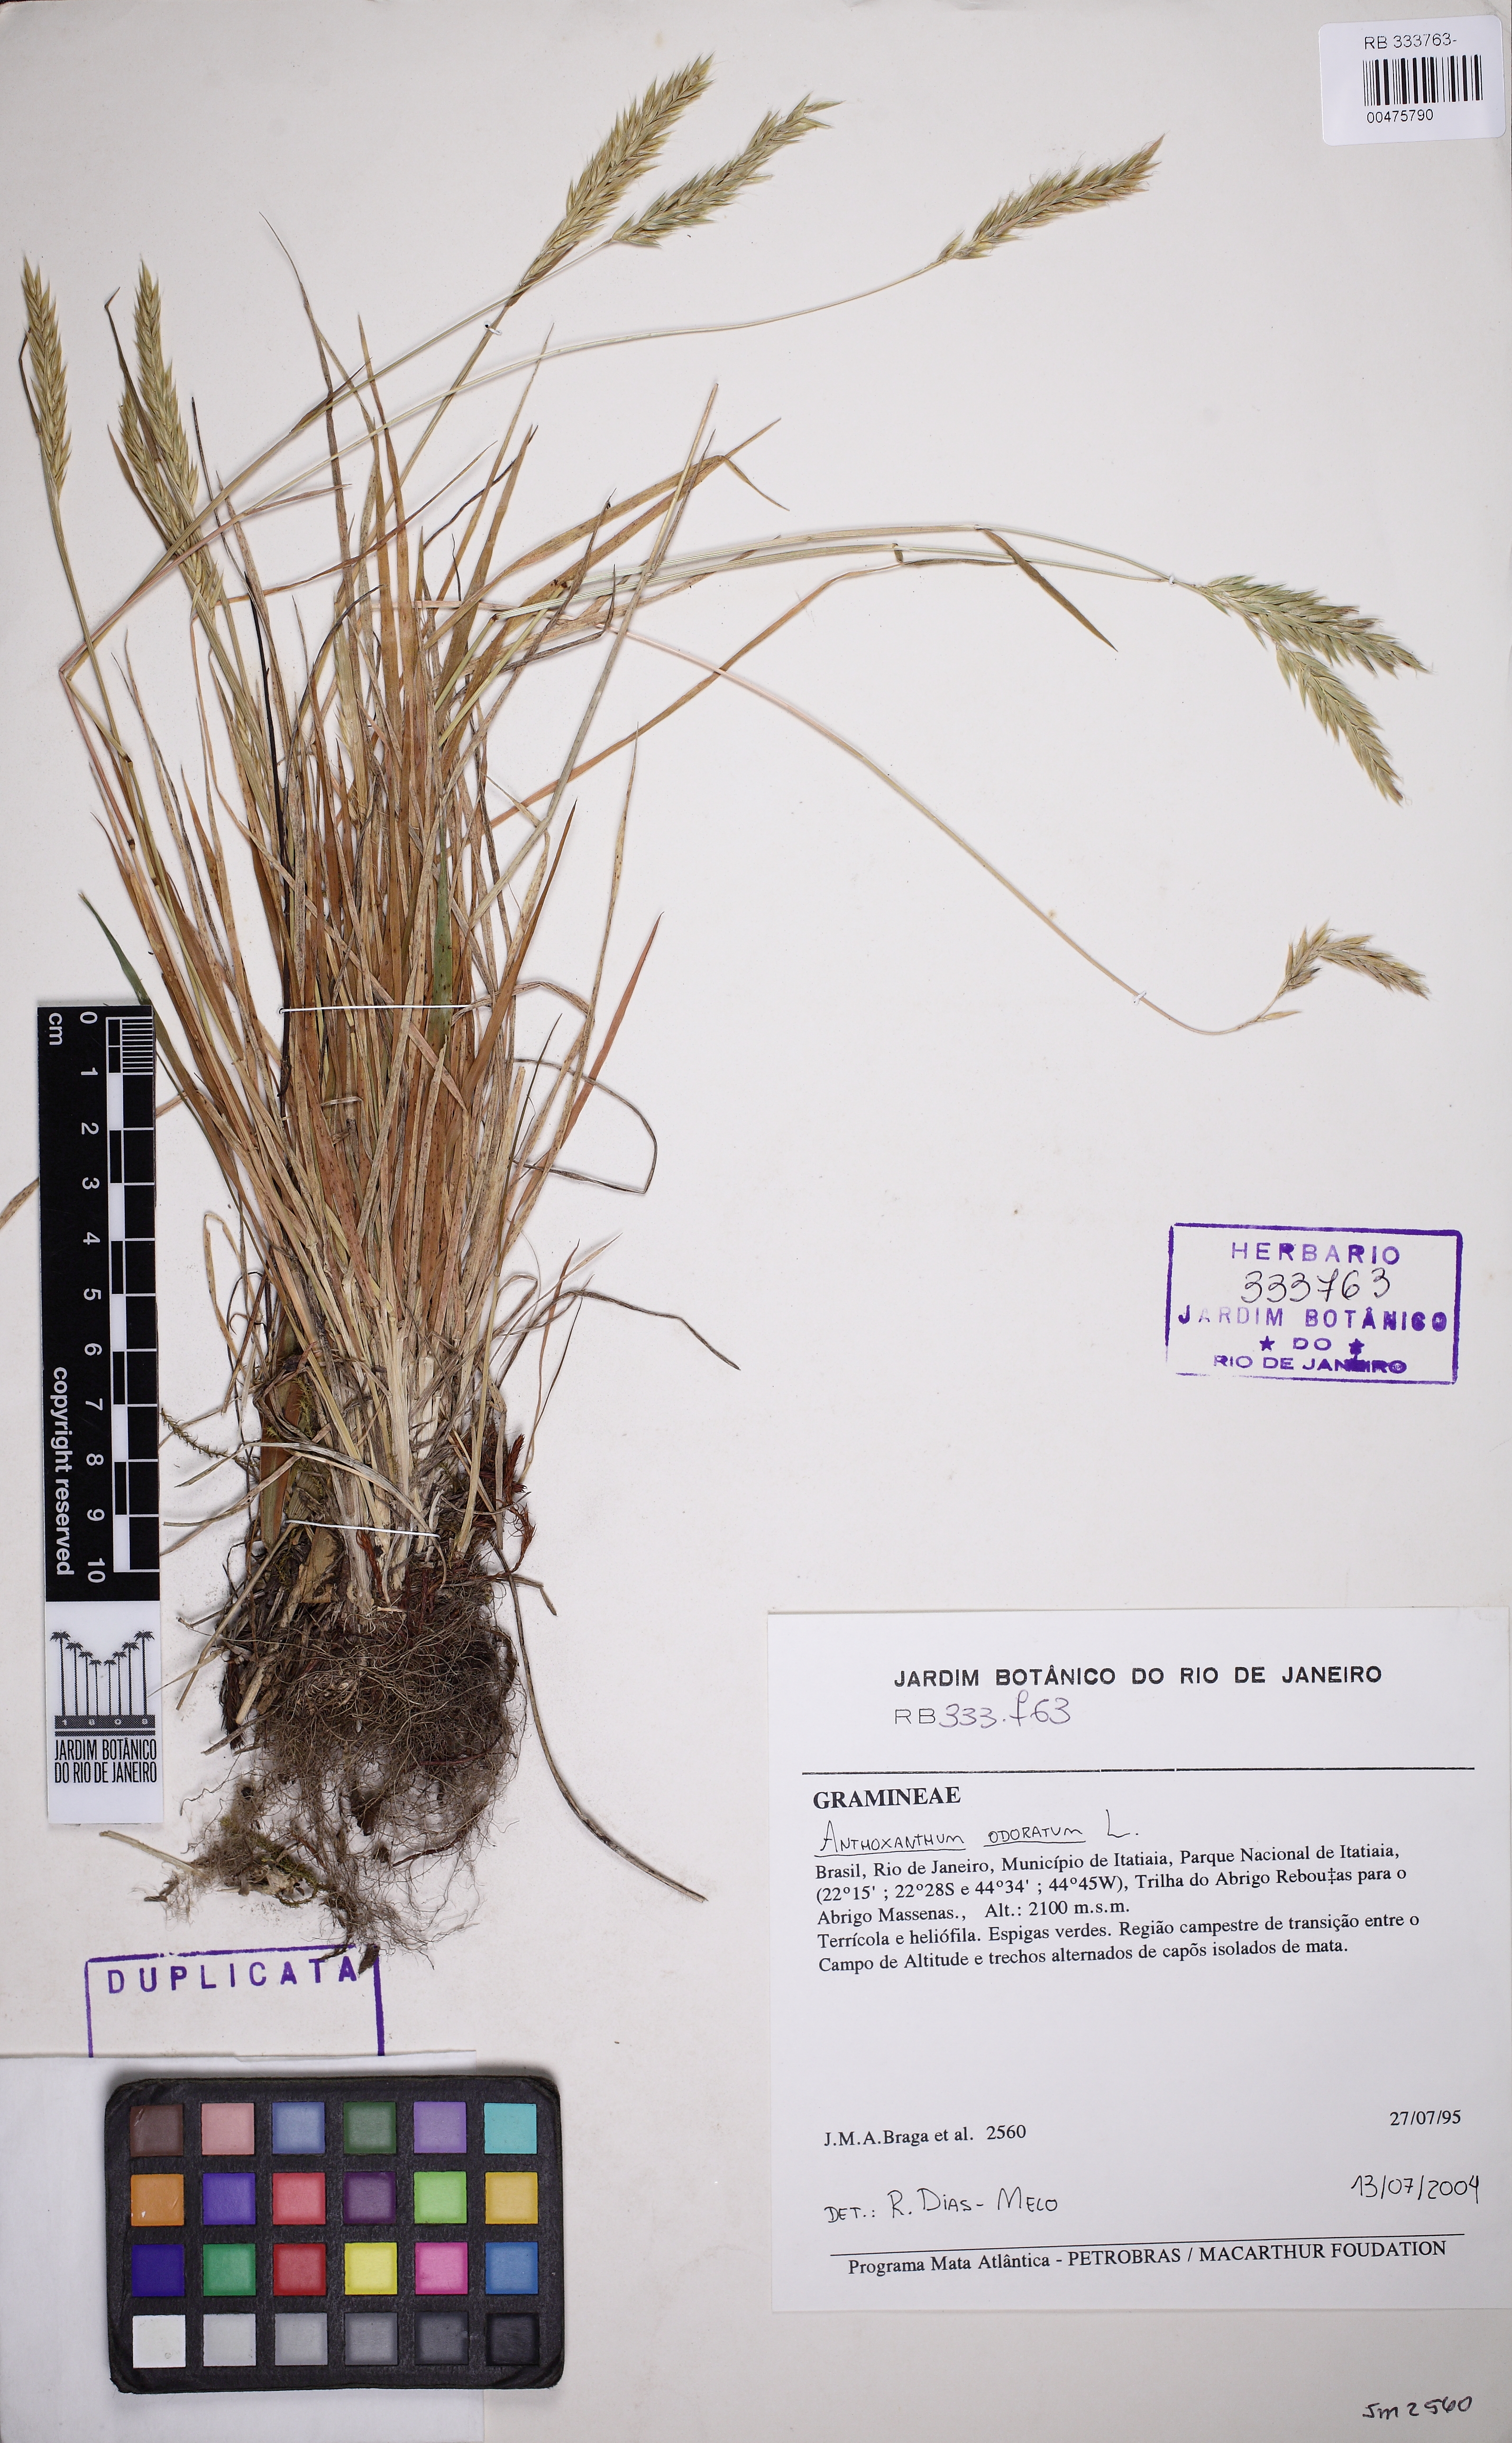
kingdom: Plantae
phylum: Tracheophyta
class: Liliopsida
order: Poales
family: Poaceae
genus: Anthoxanthum
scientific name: Anthoxanthum odoratum
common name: Sweet vernalgrass
